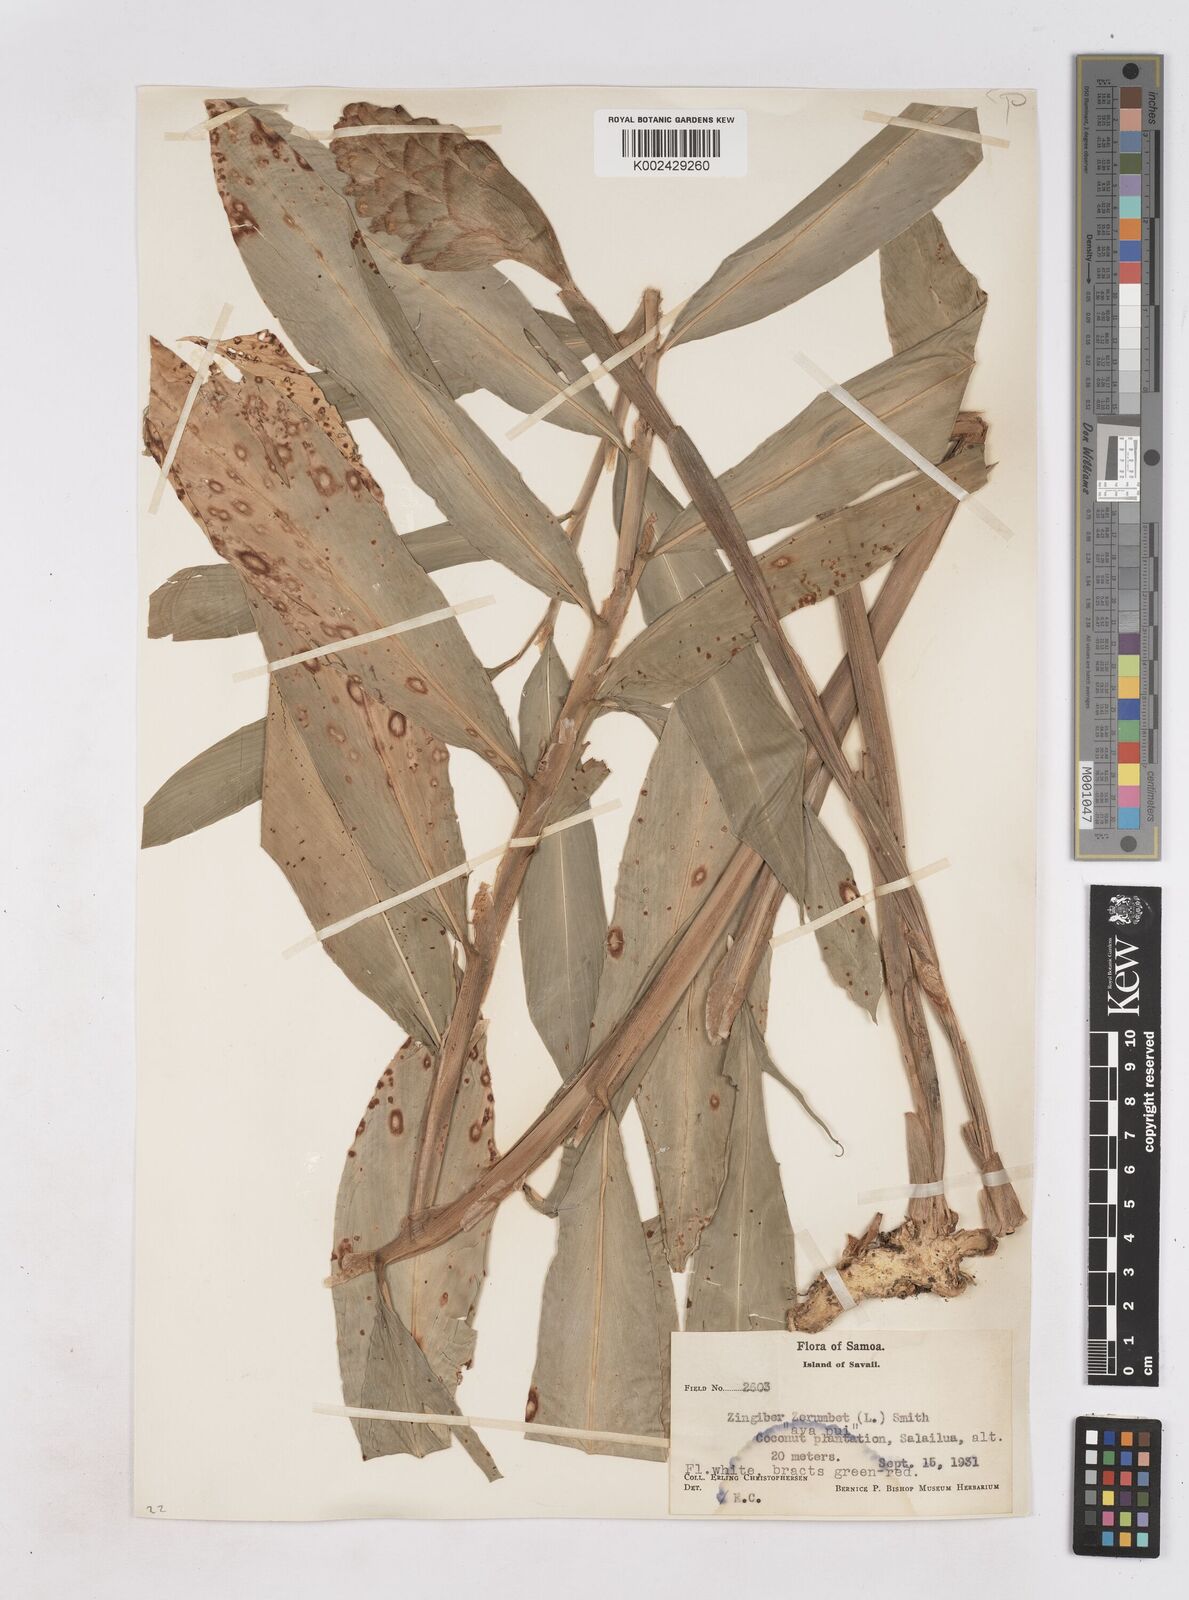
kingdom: Plantae
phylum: Tracheophyta
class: Liliopsida
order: Zingiberales
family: Zingiberaceae
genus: Zingiber
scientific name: Zingiber zerumbet
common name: Bitter ginger
